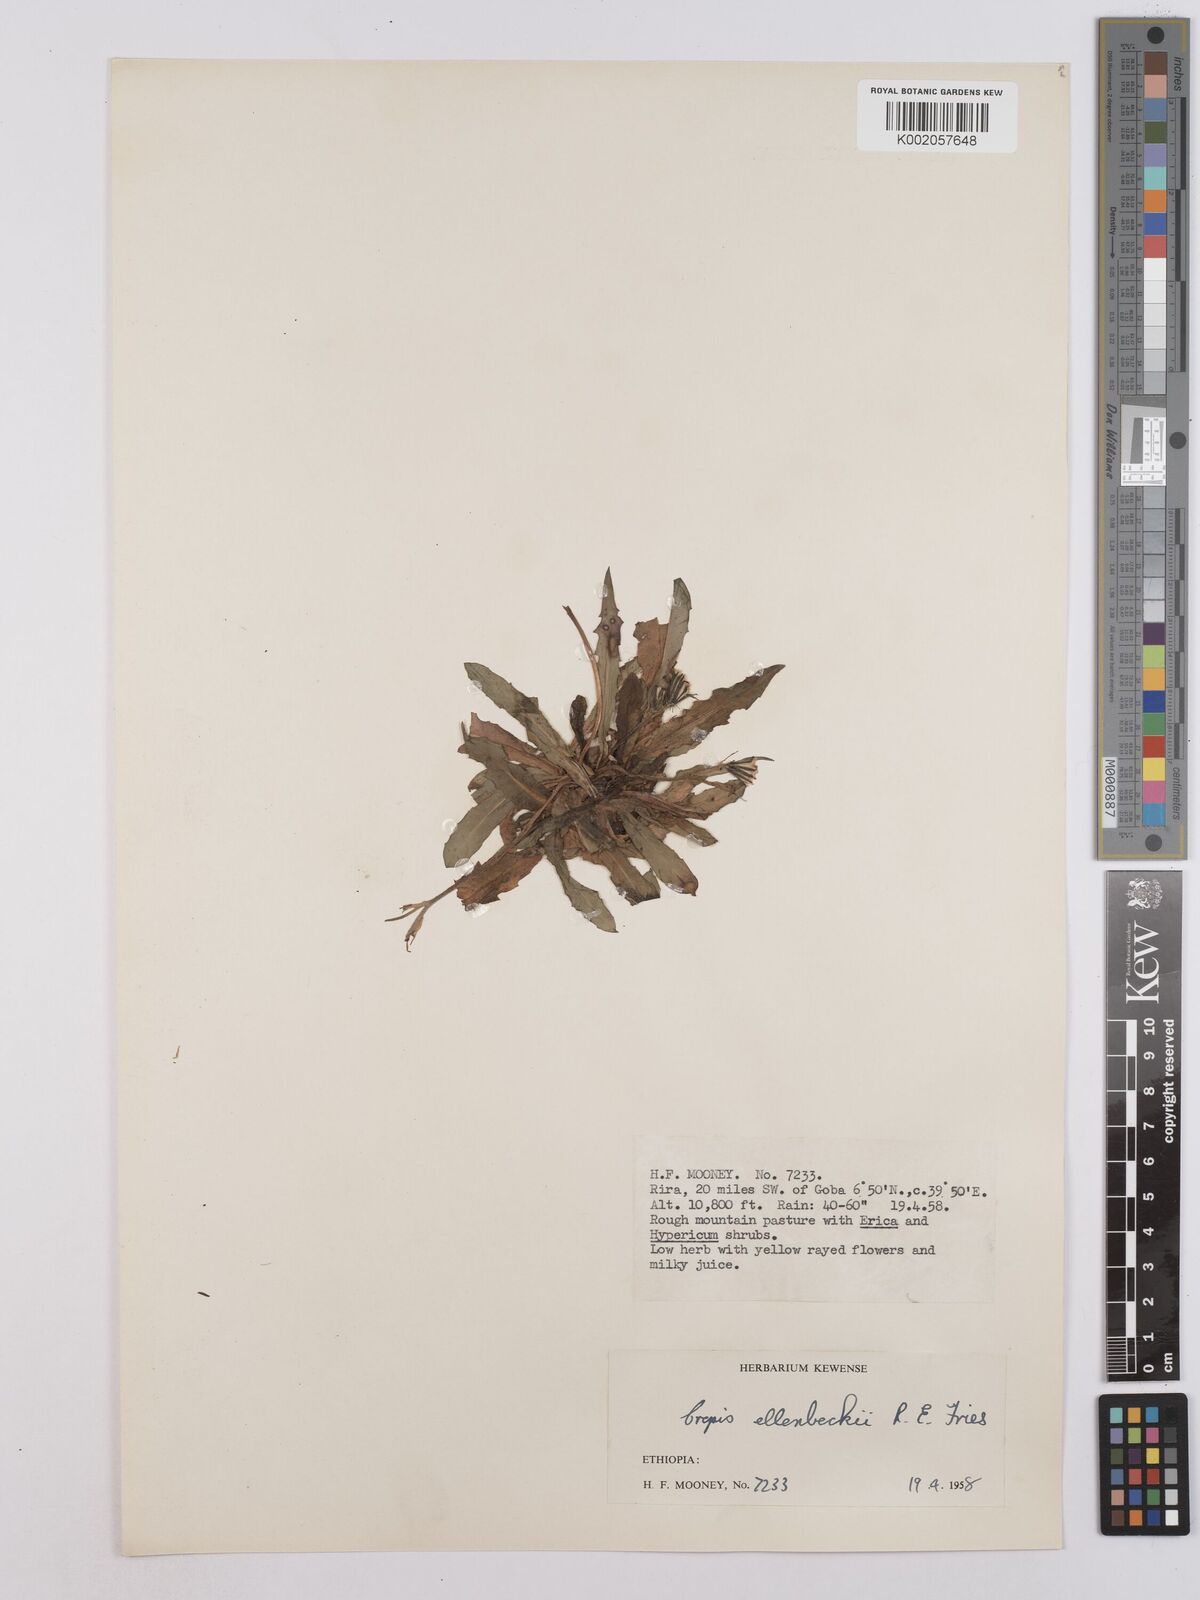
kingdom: Plantae
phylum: Tracheophyta
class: Magnoliopsida
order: Asterales
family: Asteraceae
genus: Crepis
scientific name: Crepis carbonaria
